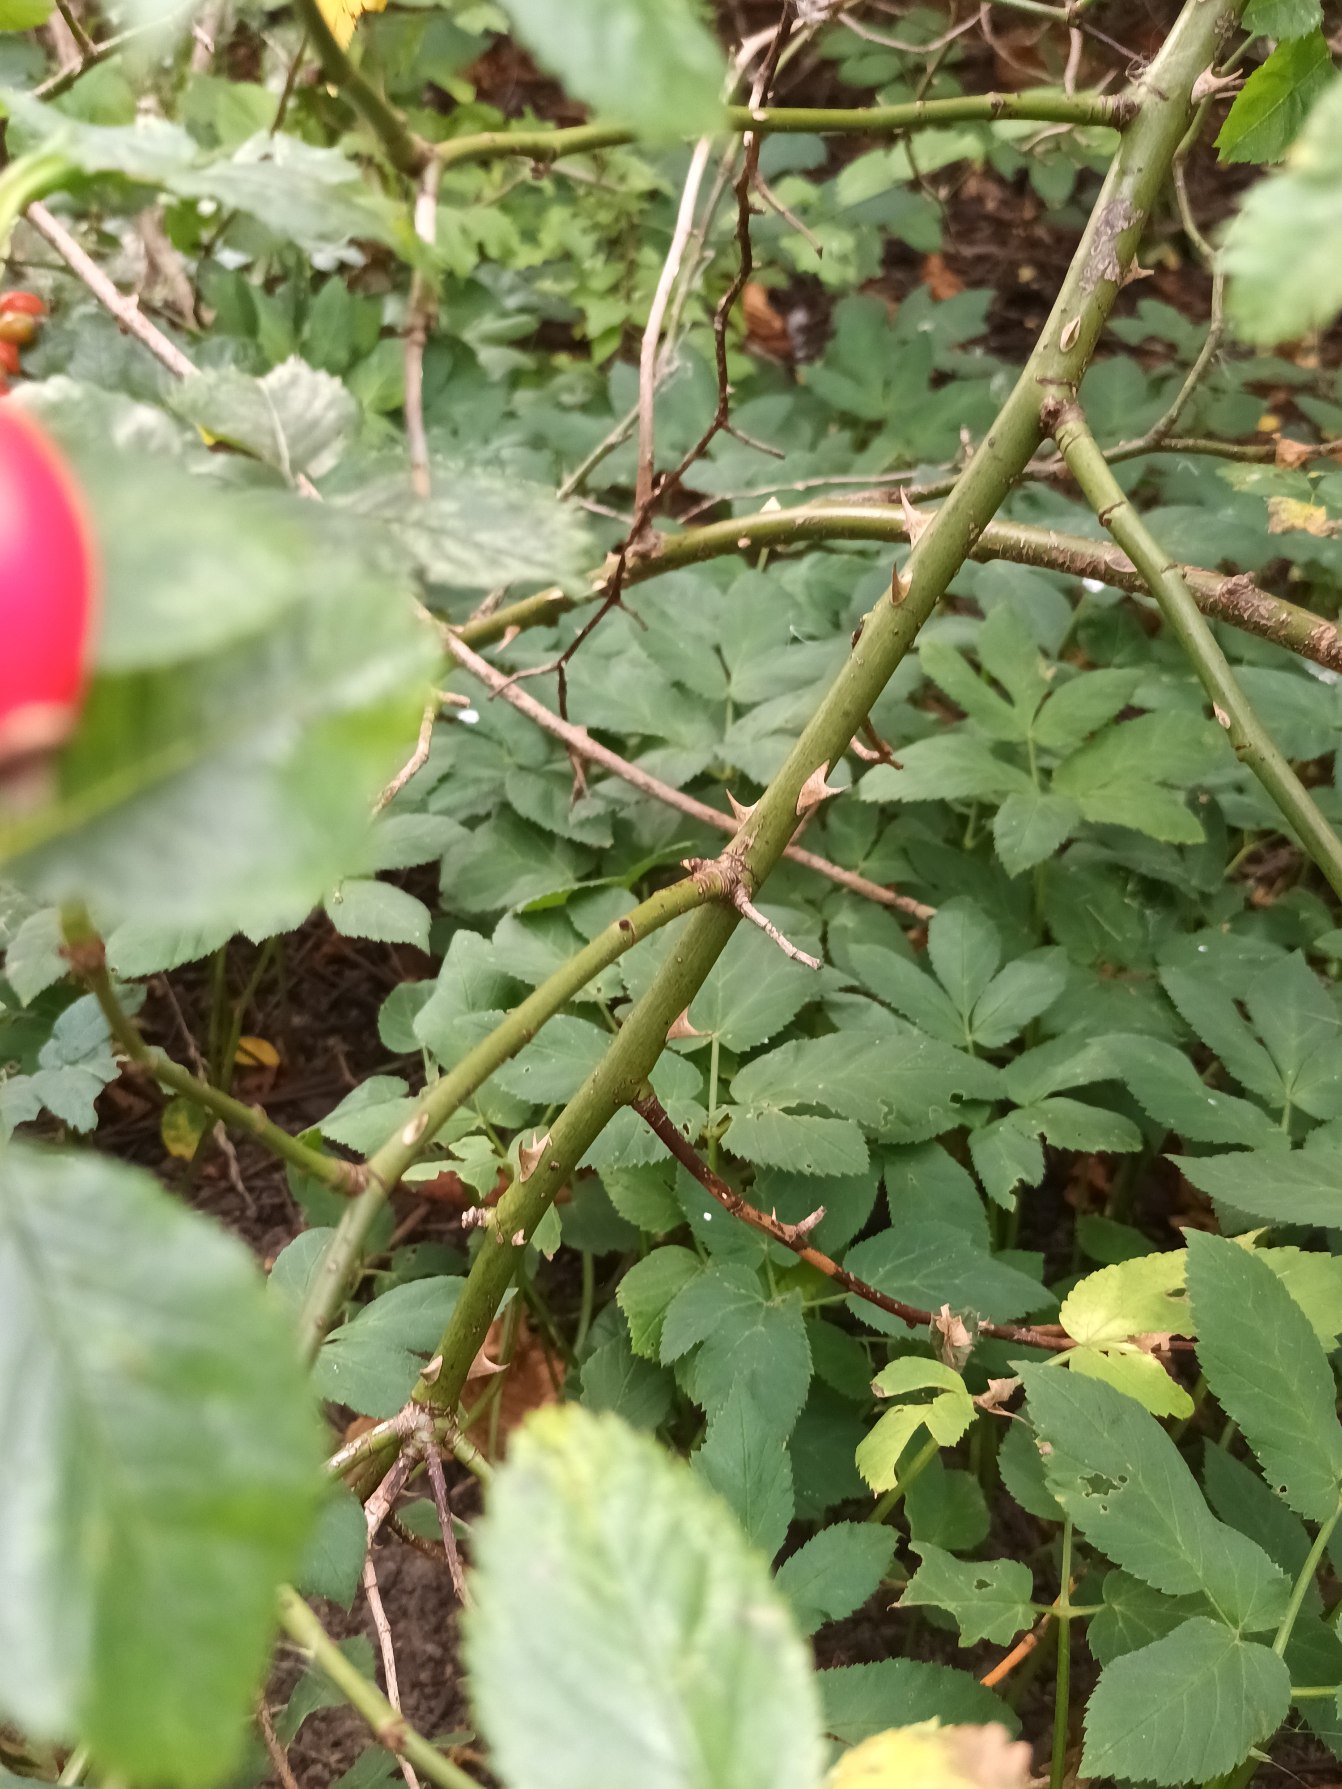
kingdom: Plantae
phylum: Tracheophyta
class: Magnoliopsida
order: Rosales
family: Rosaceae
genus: Rosa
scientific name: Rosa canina
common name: Glat hunde-rose
